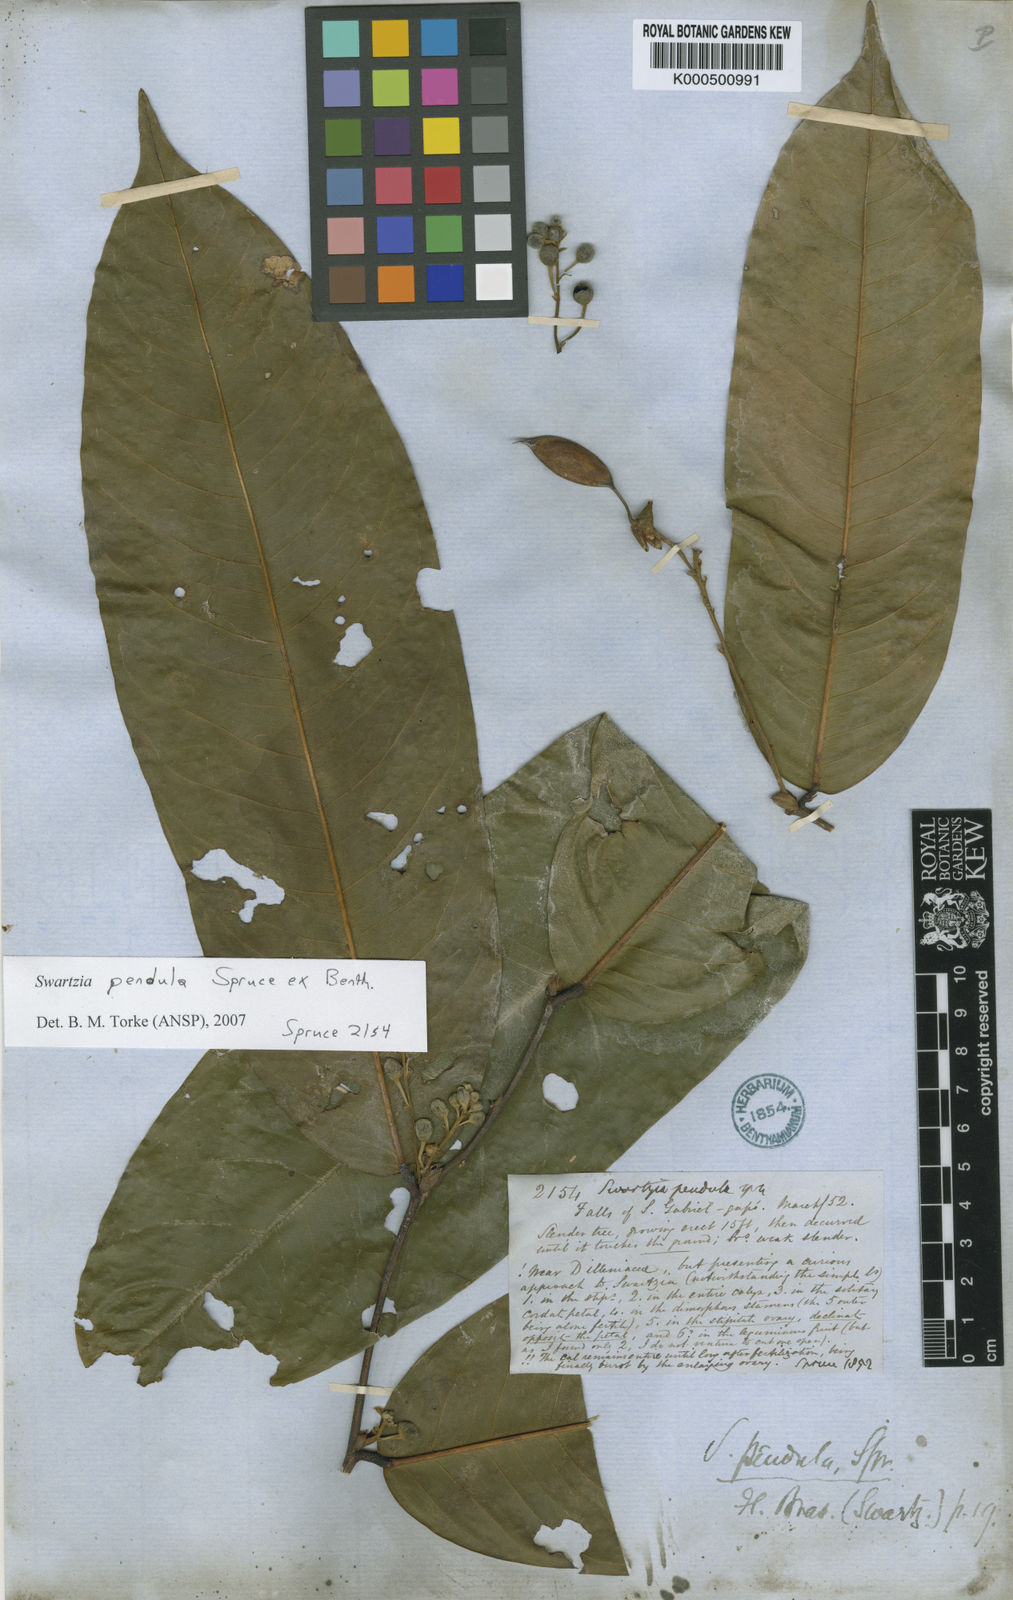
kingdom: Plantae
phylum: Tracheophyta
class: Magnoliopsida
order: Fabales
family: Fabaceae
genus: Swartzia
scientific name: Swartzia pendula
